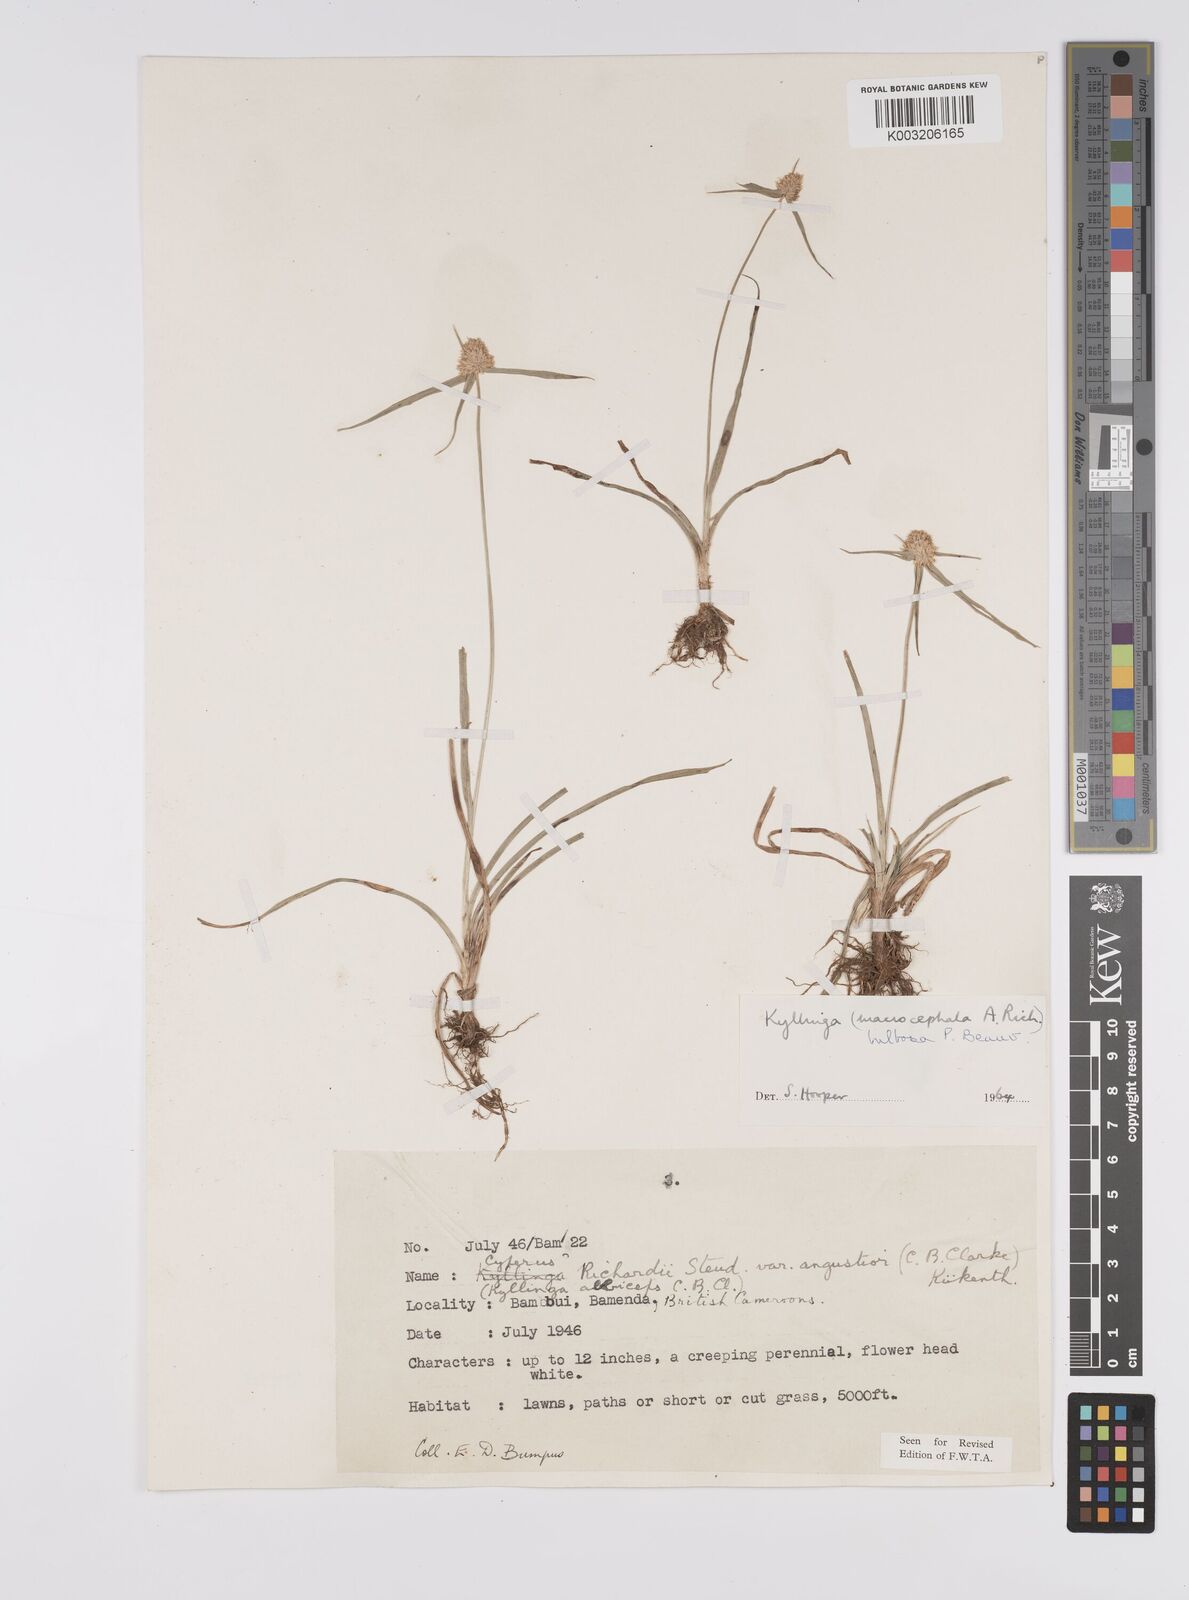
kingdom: Plantae
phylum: Tracheophyta
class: Liliopsida
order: Poales
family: Cyperaceae
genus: Cyperus
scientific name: Cyperus
